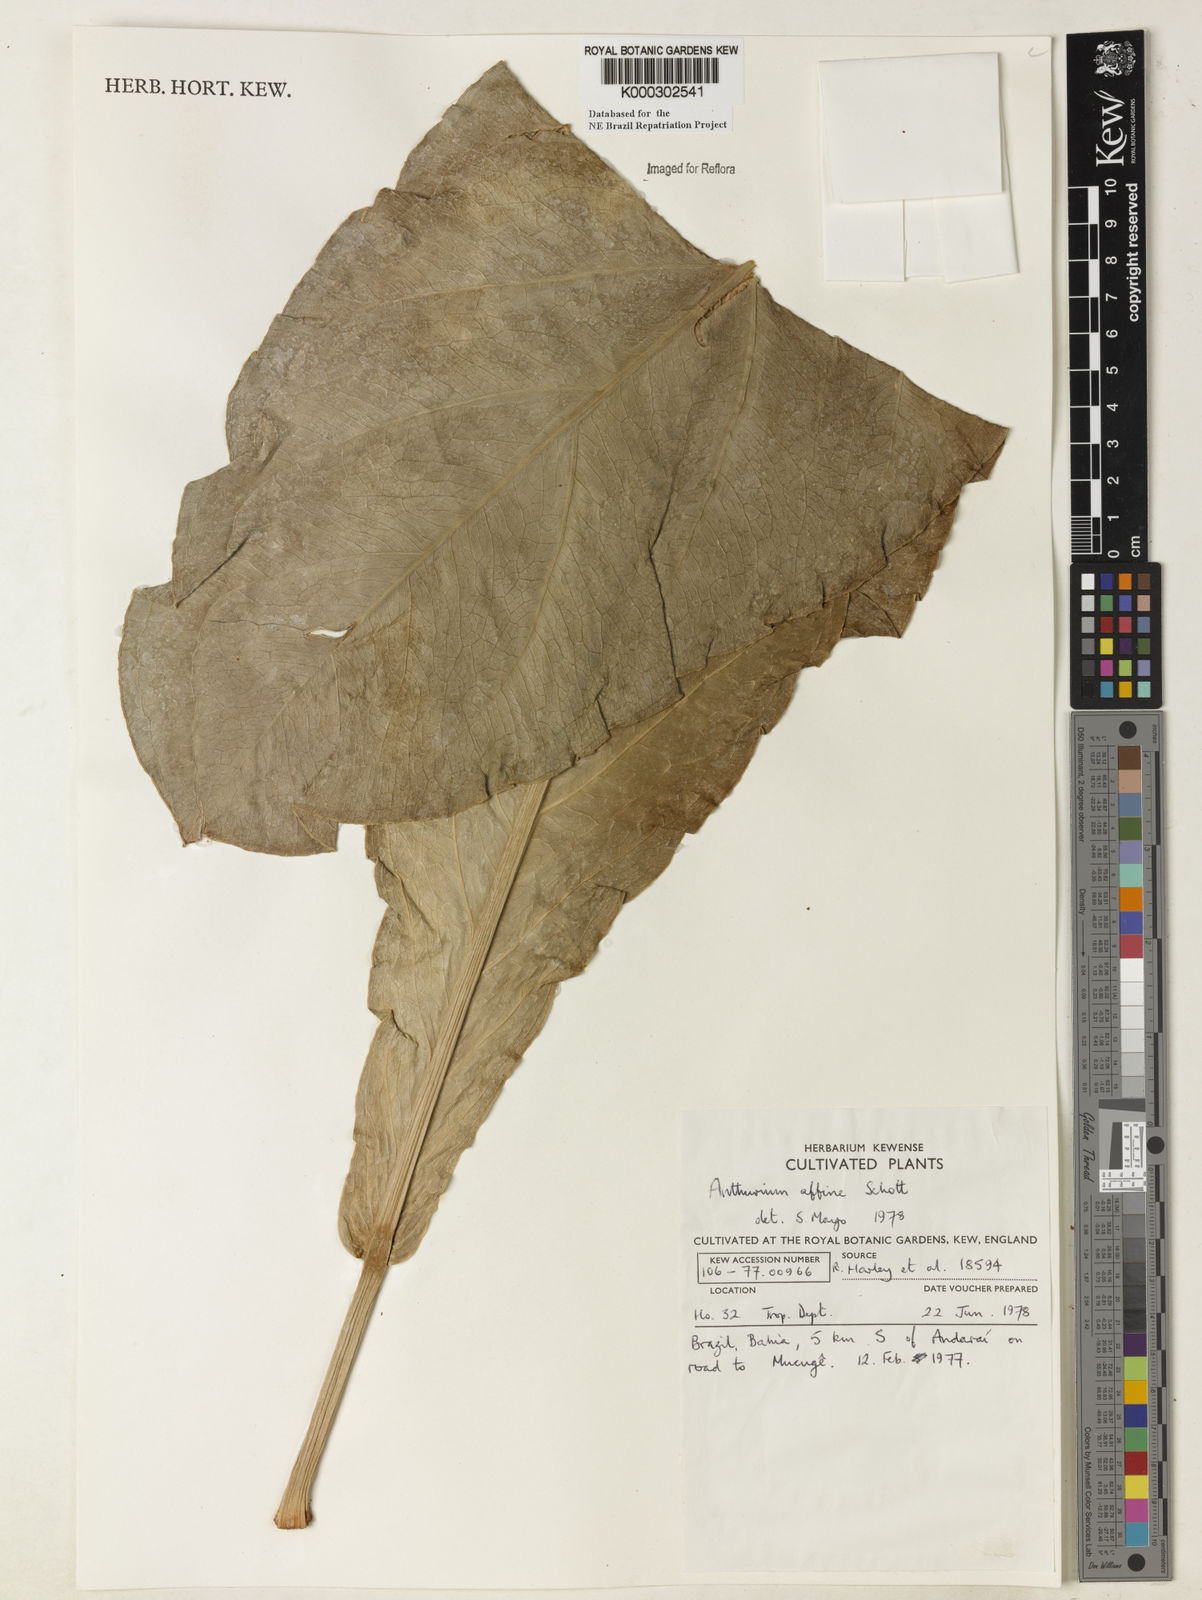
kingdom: Plantae
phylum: Tracheophyta
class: Liliopsida
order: Alismatales
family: Araceae
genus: Anthurium
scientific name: Anthurium affine
